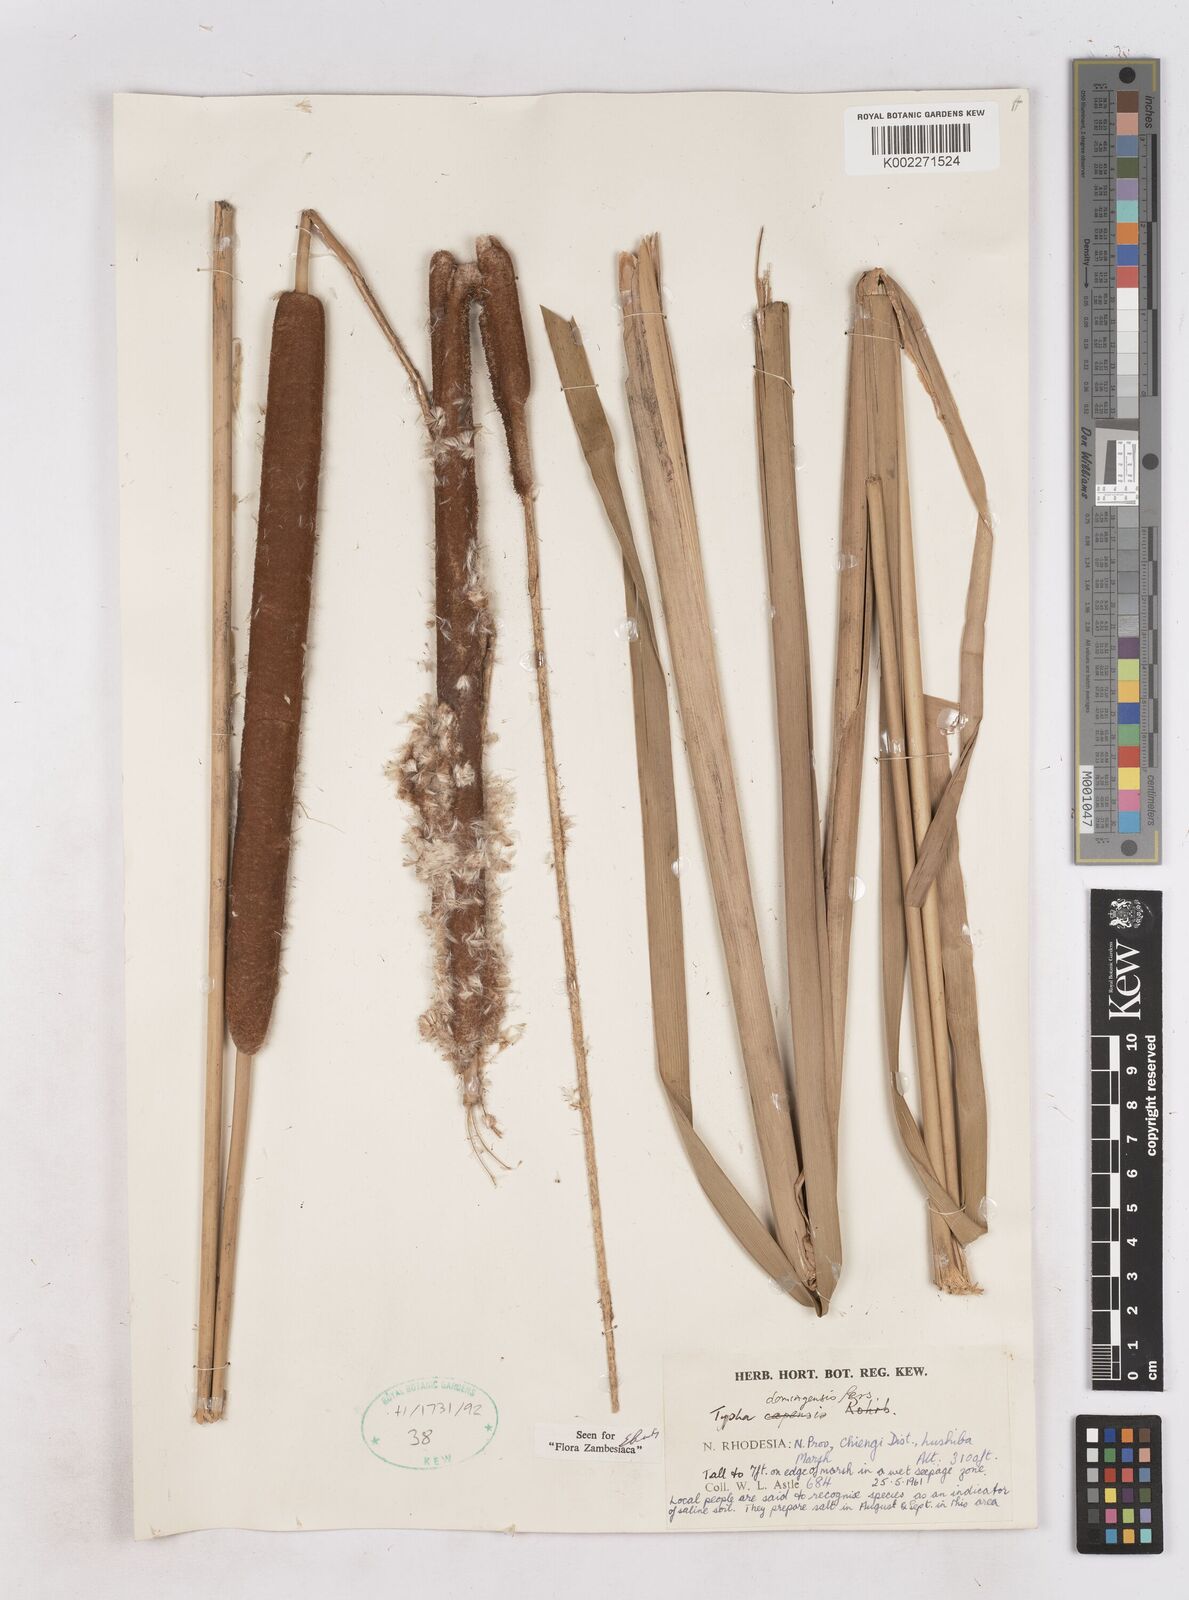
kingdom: Plantae
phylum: Tracheophyta
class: Liliopsida
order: Poales
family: Typhaceae
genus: Typha
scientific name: Typha domingensis
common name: Southern cattail
